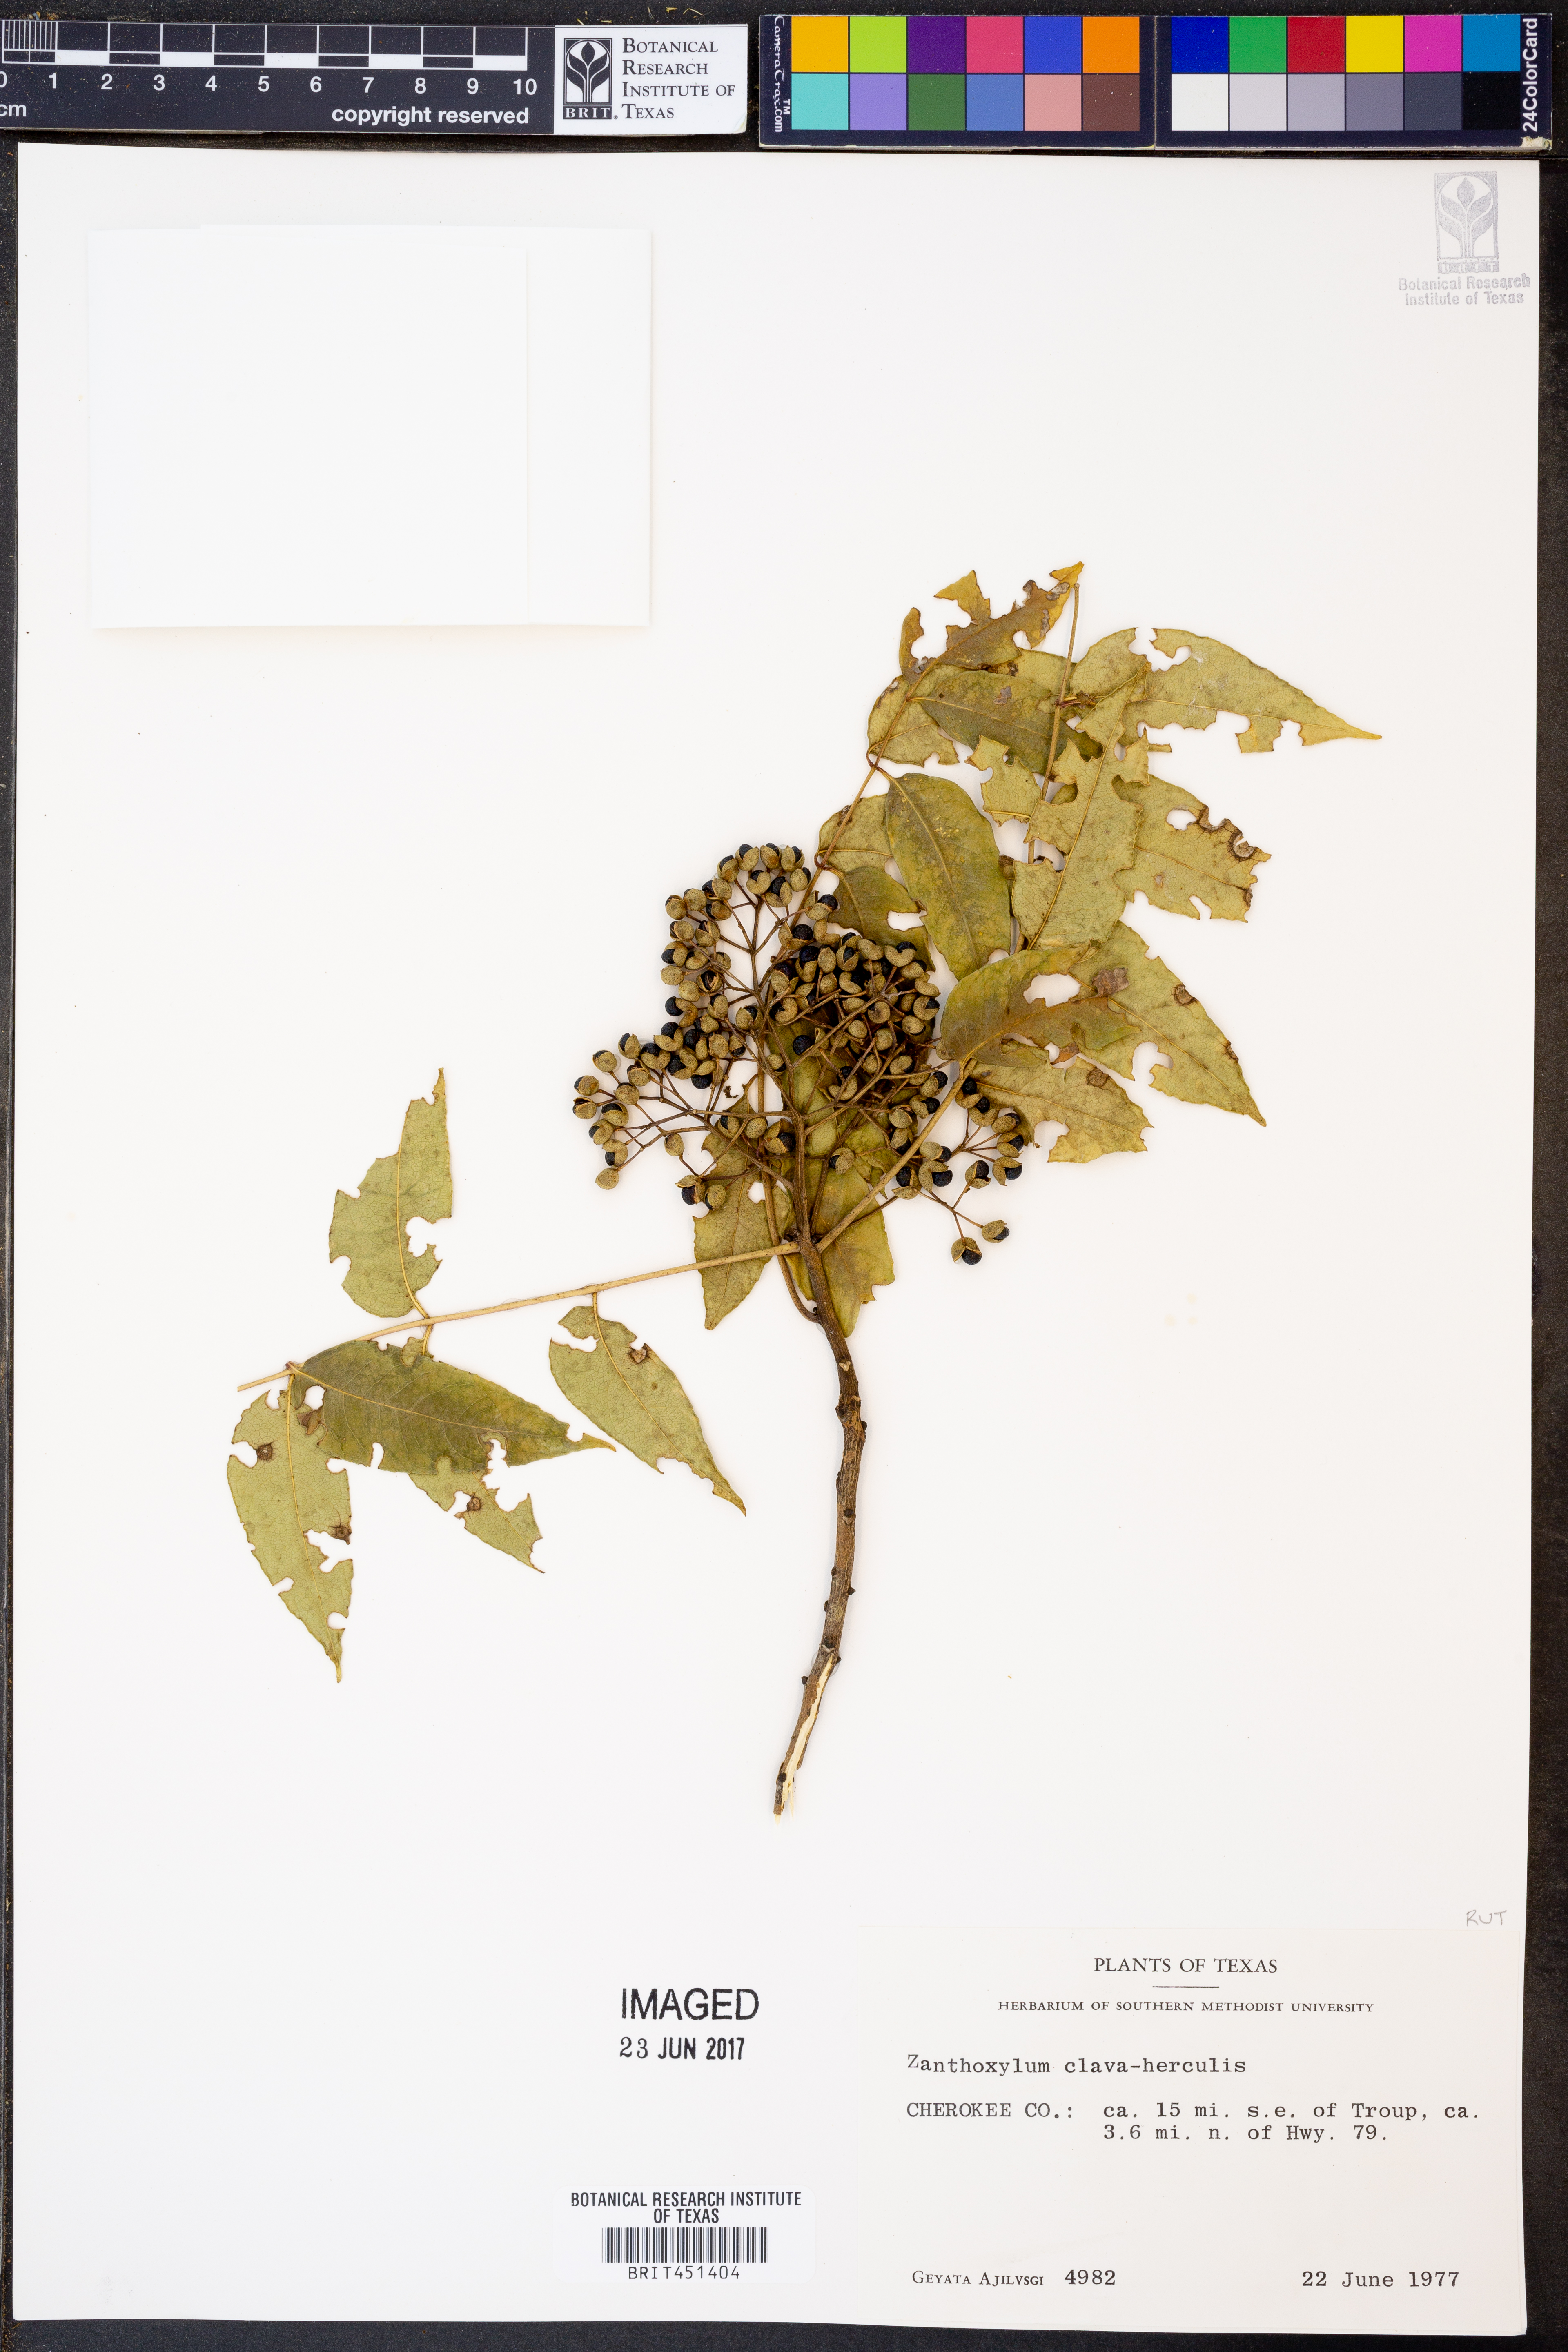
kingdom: Plantae
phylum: Tracheophyta
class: Magnoliopsida
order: Sapindales
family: Rutaceae
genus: Zanthoxylum
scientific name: Zanthoxylum avicennae
